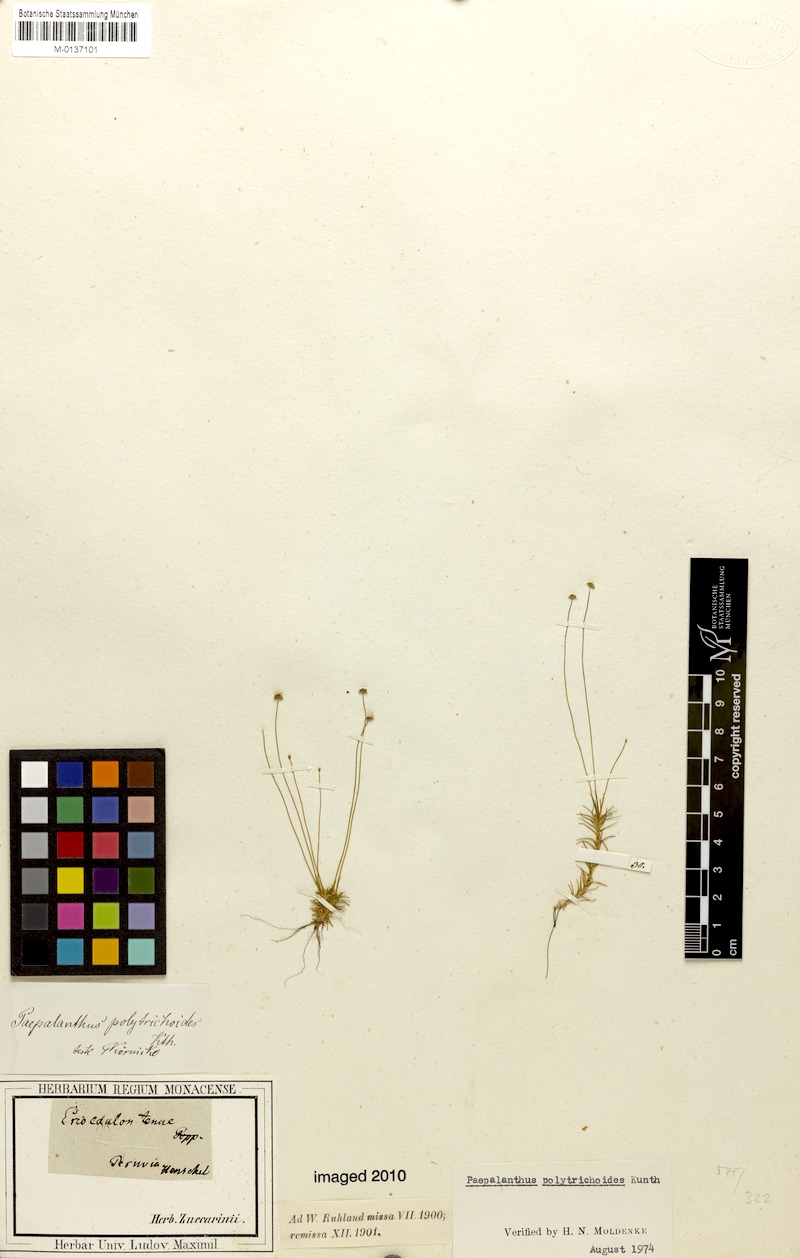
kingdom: Plantae
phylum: Tracheophyta
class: Liliopsida
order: Poales
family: Eriocaulaceae
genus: Paepalanthus
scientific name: Paepalanthus polytrichoides
